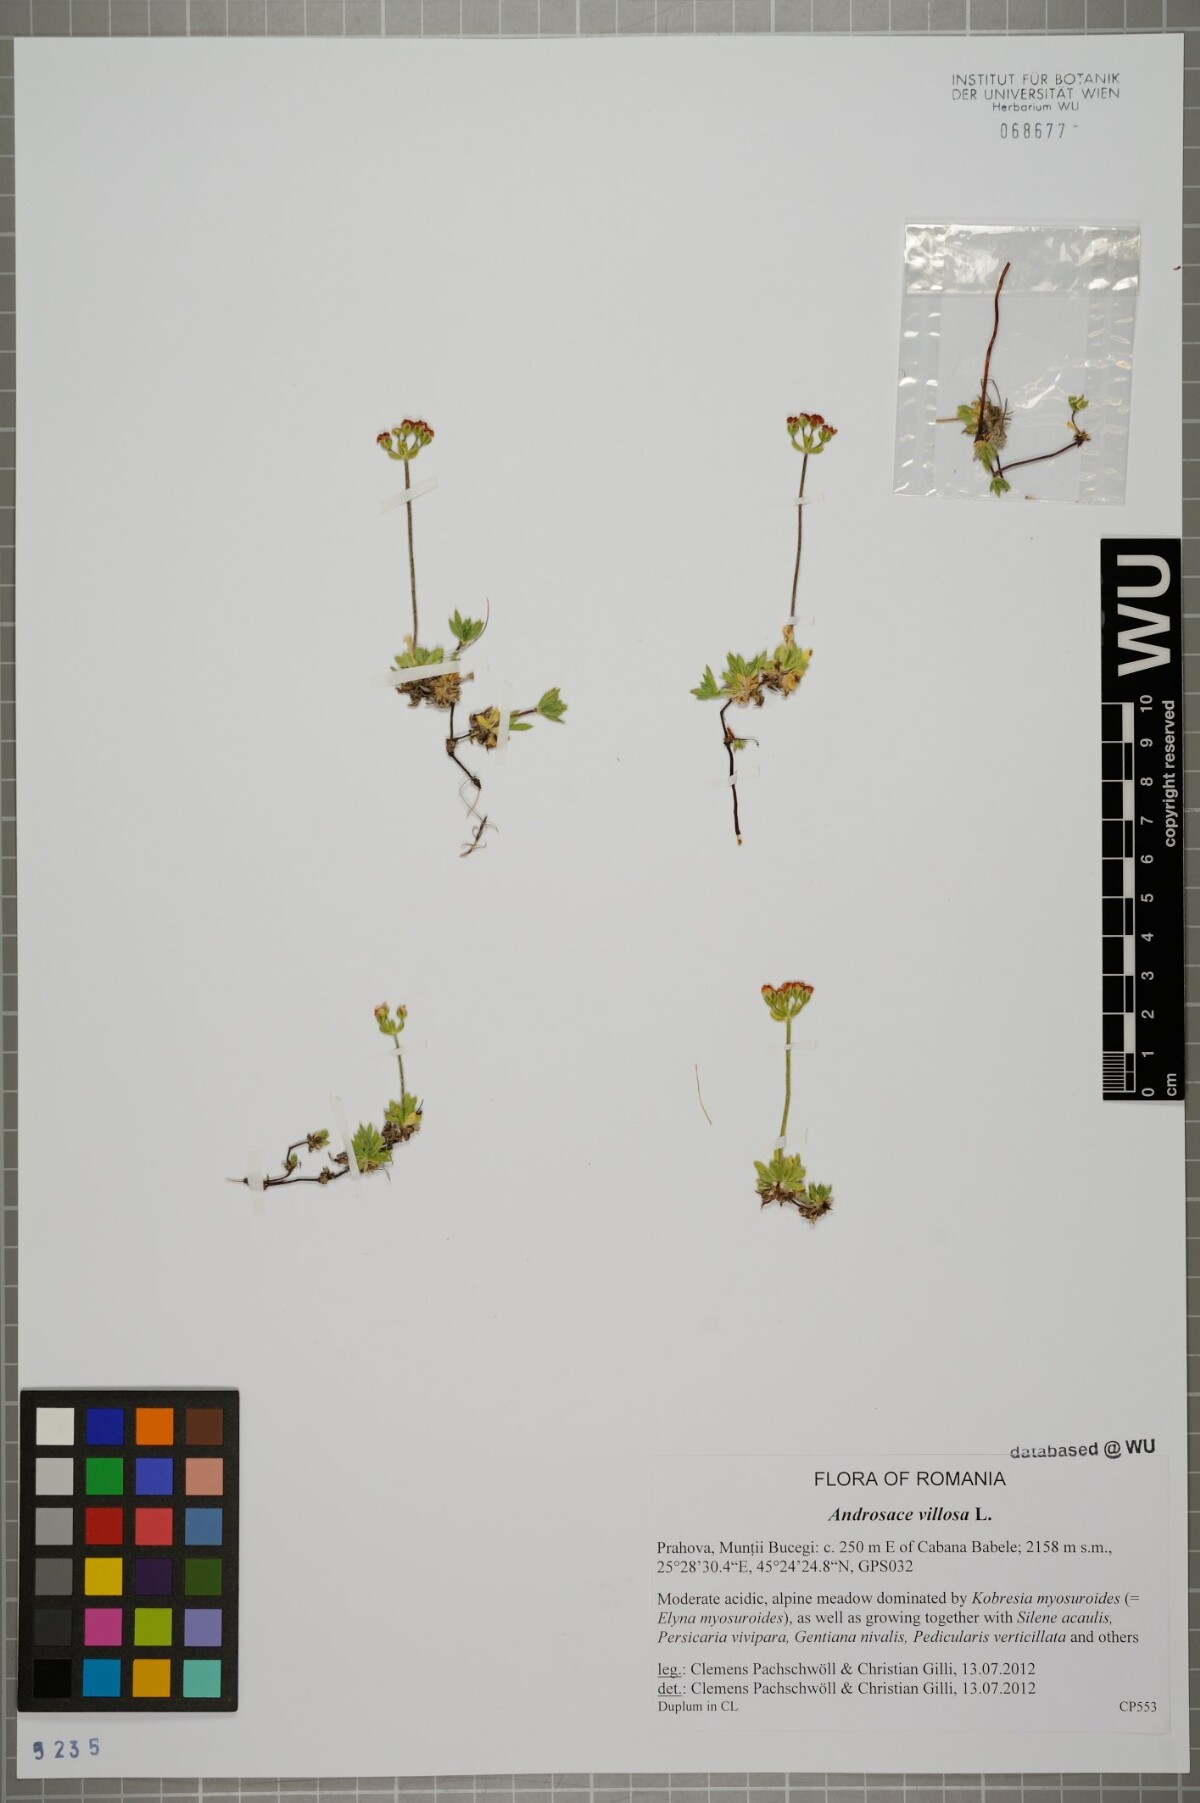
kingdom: Plantae
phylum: Tracheophyta
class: Magnoliopsida
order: Ericales
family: Primulaceae
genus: Androsace
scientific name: Androsace villosa
